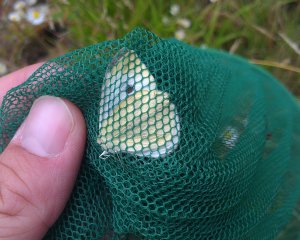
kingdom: Animalia
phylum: Arthropoda
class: Insecta
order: Lepidoptera
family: Pieridae
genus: Pieris
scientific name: Pieris rapae
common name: Cabbage White
